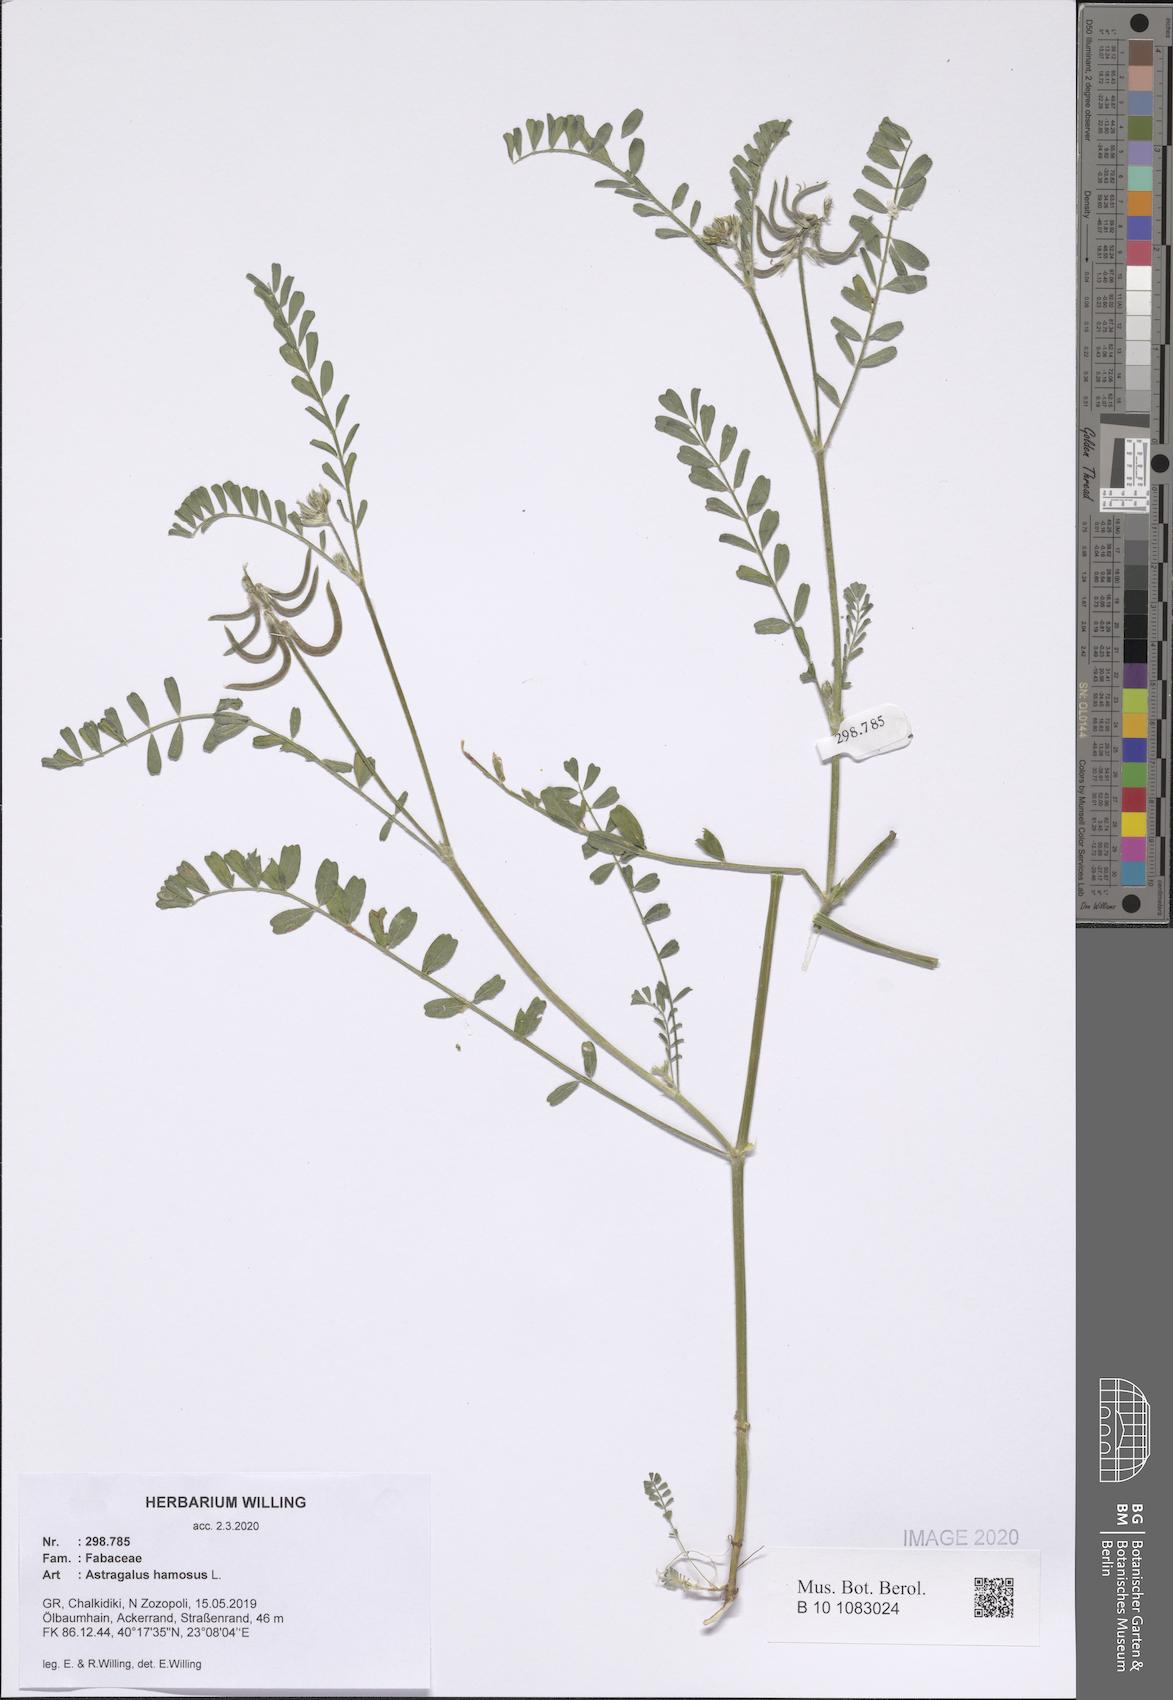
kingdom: Plantae
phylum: Tracheophyta
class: Magnoliopsida
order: Fabales
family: Fabaceae
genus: Astragalus
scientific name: Astragalus hamosus
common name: European milkvetch
